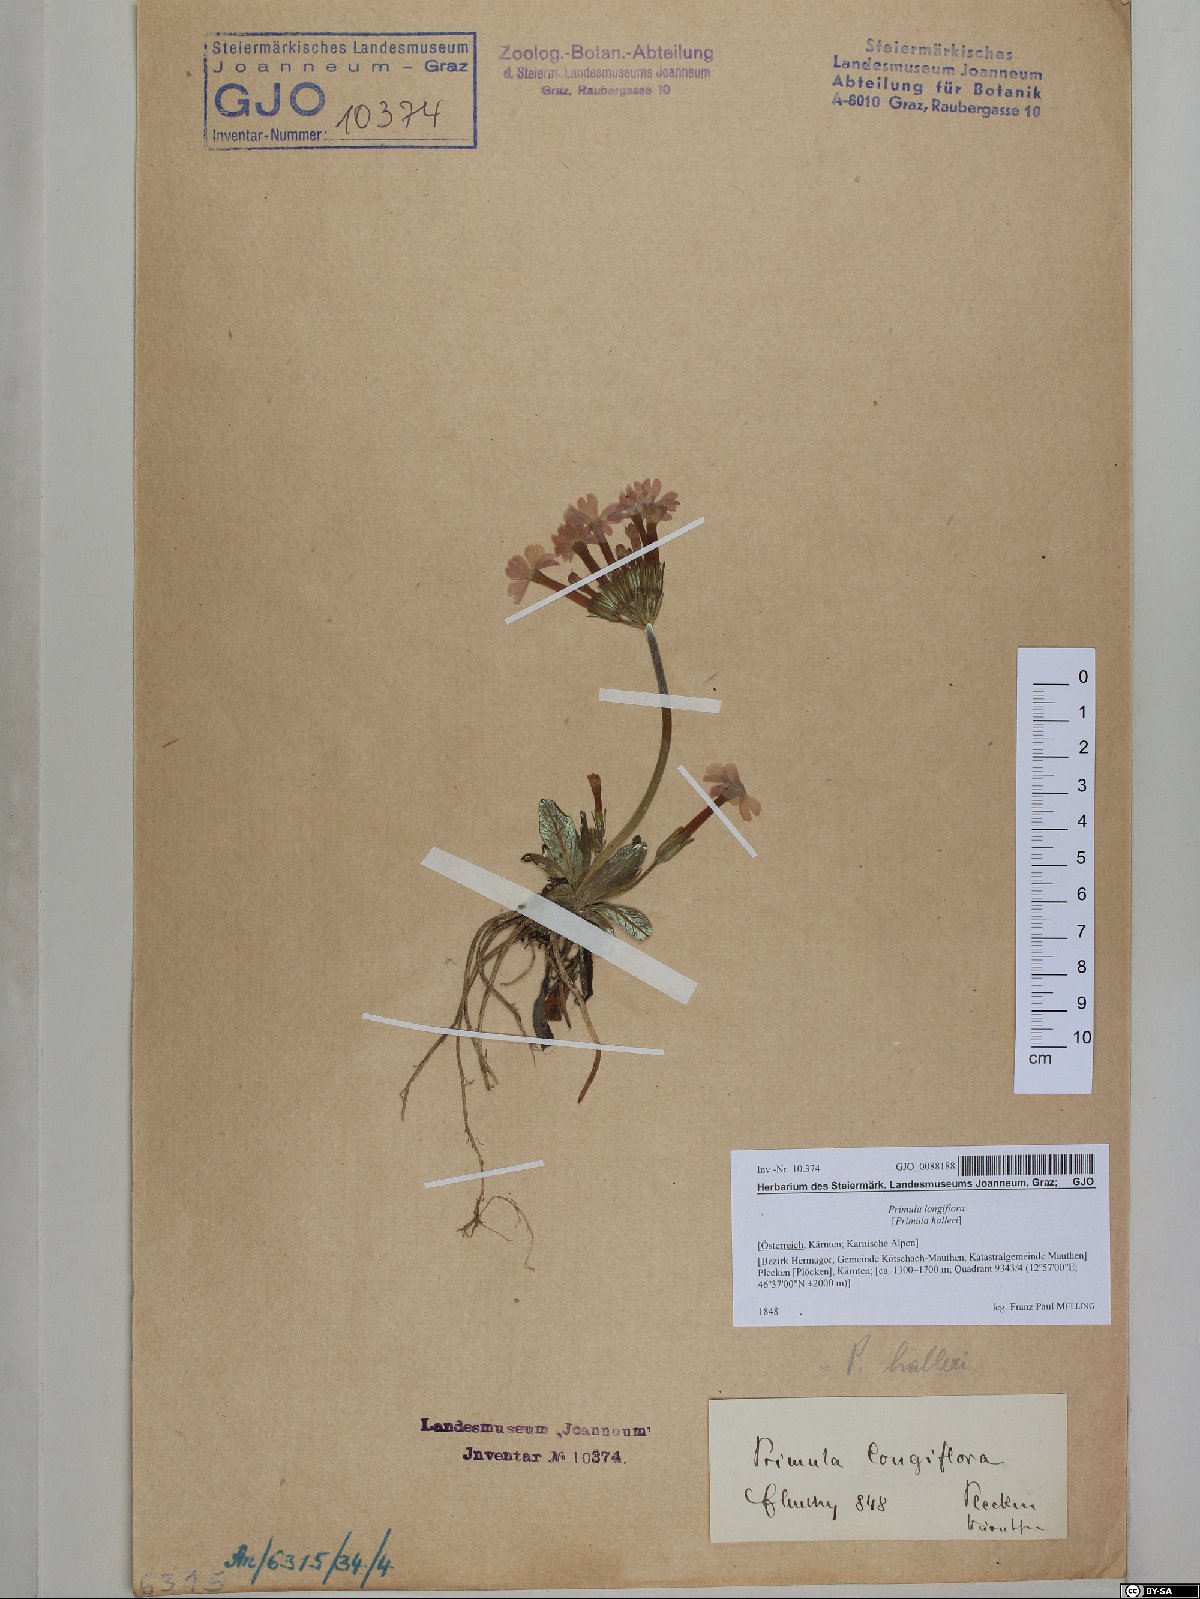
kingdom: Plantae
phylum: Tracheophyta
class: Magnoliopsida
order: Ericales
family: Primulaceae
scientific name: Primulaceae
